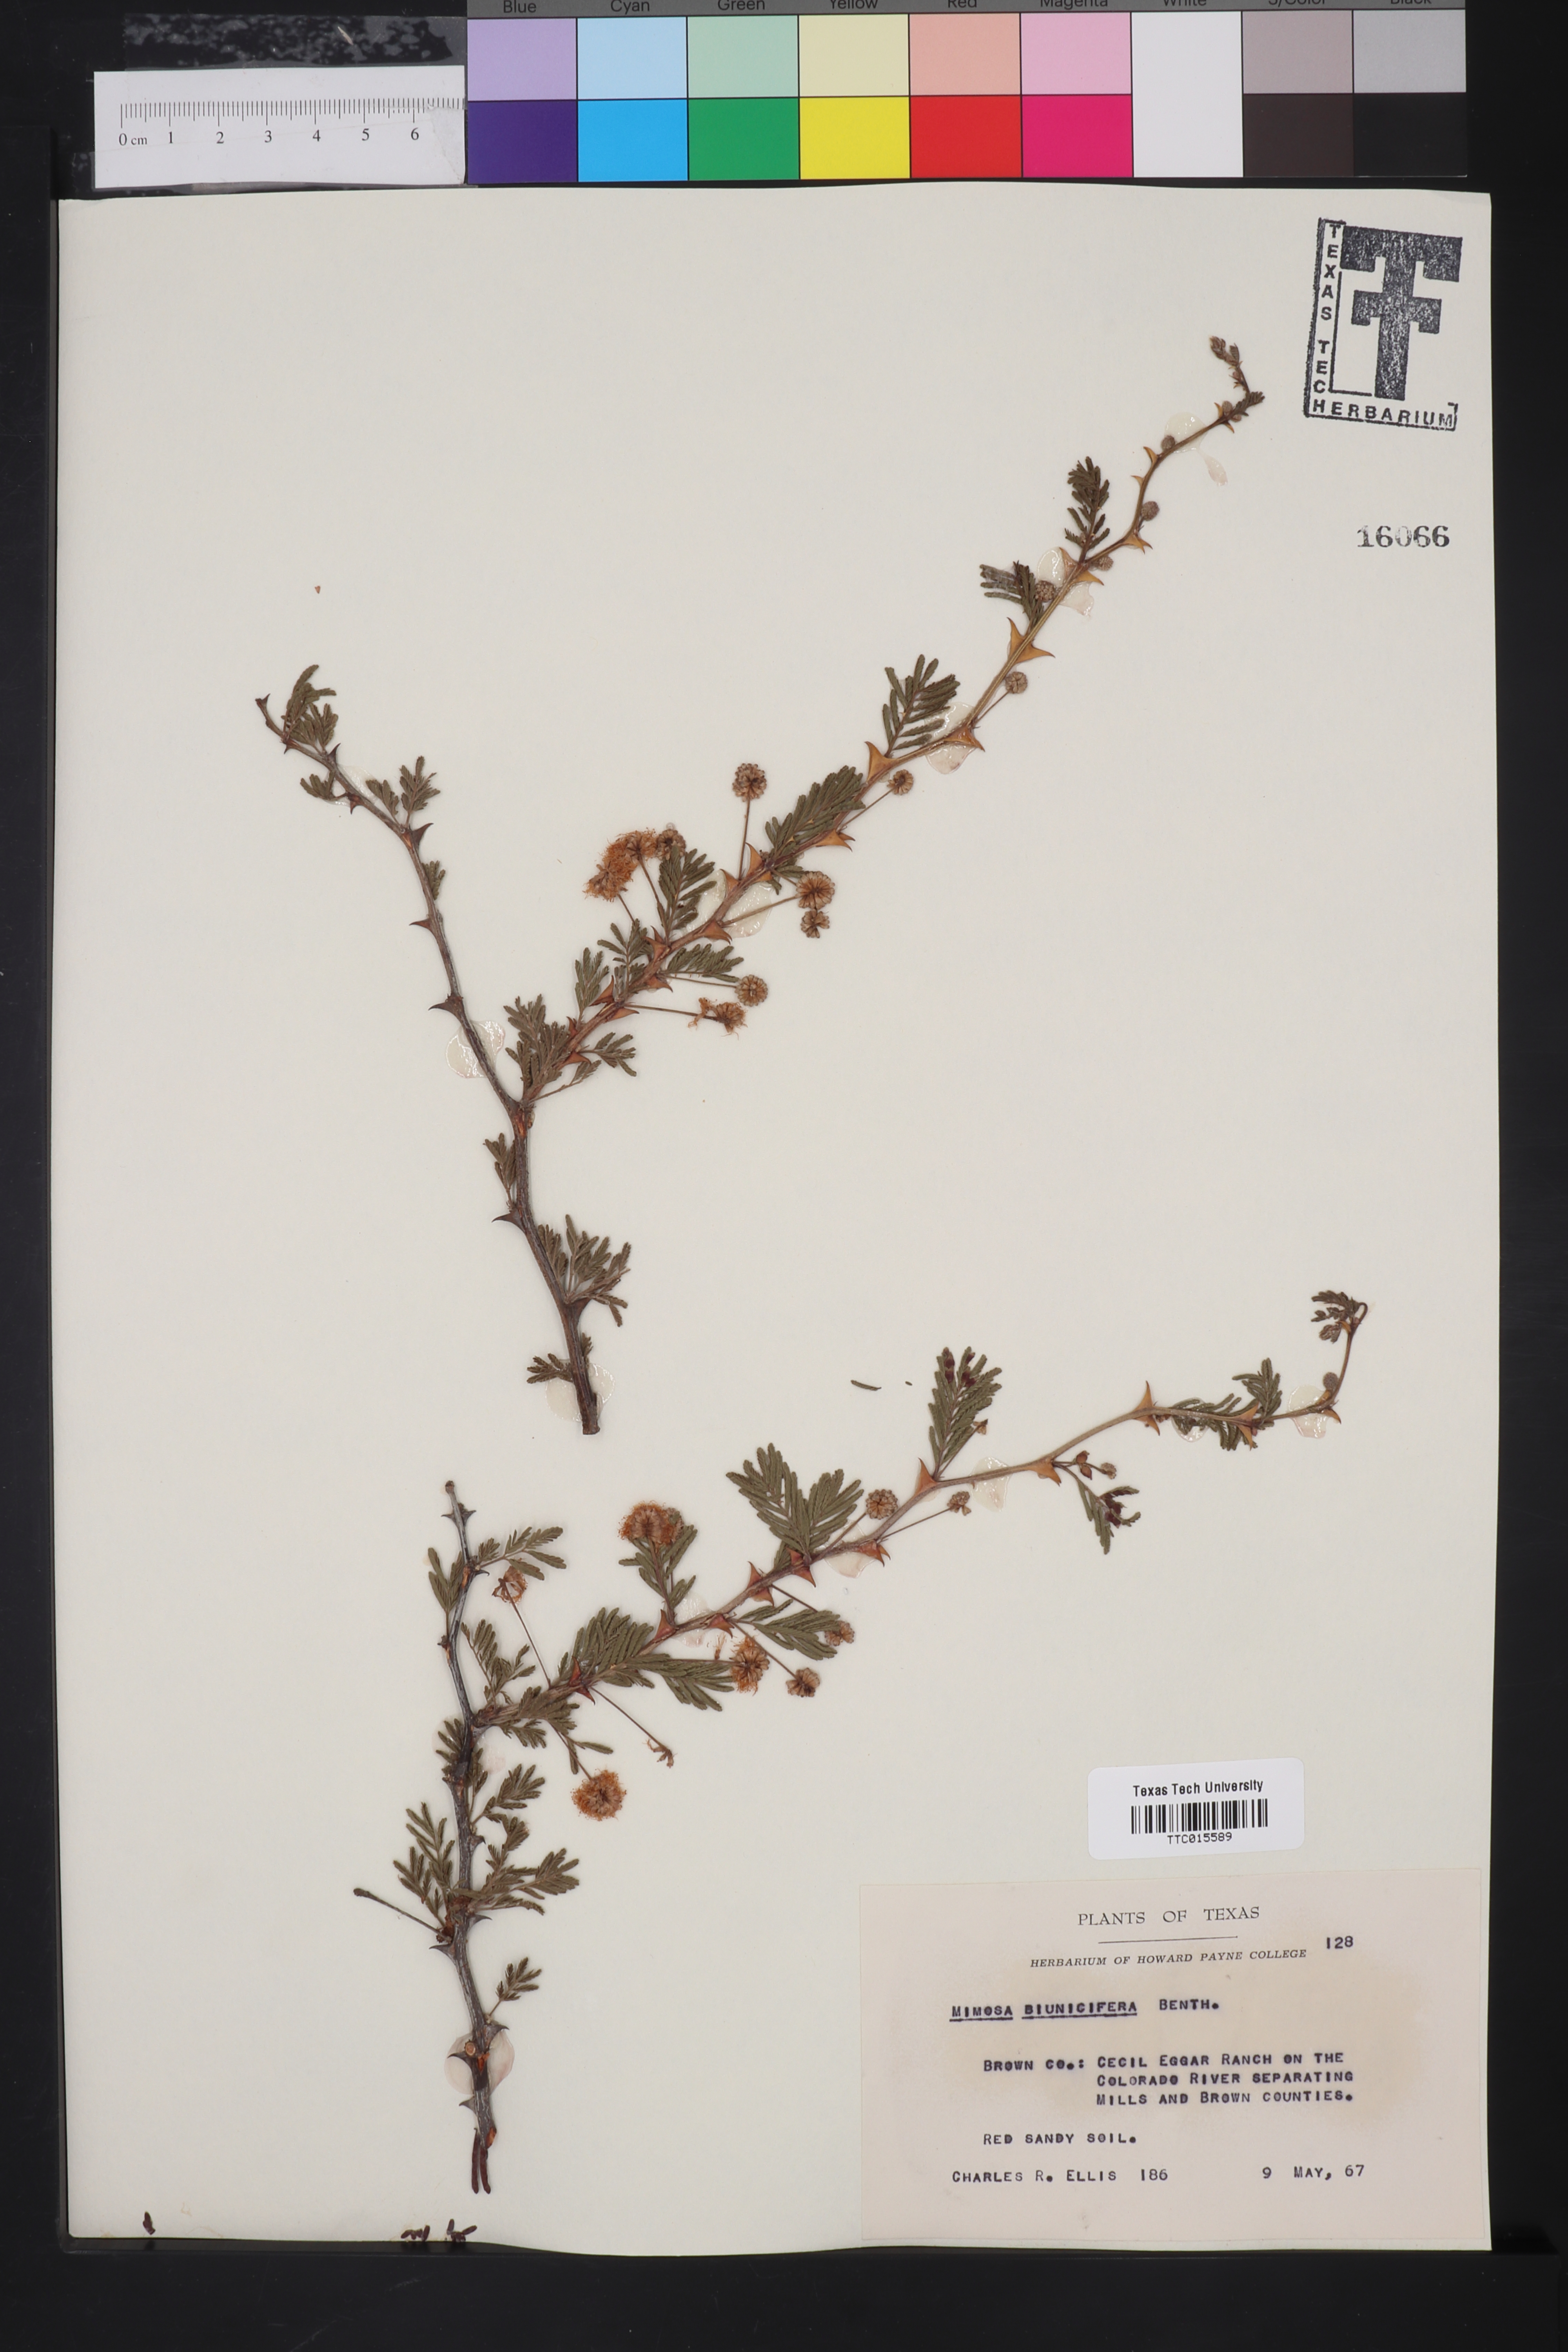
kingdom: Plantae
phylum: Tracheophyta
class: Magnoliopsida
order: Fabales
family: Fabaceae
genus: Mimosa
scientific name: Mimosa biuncifera
